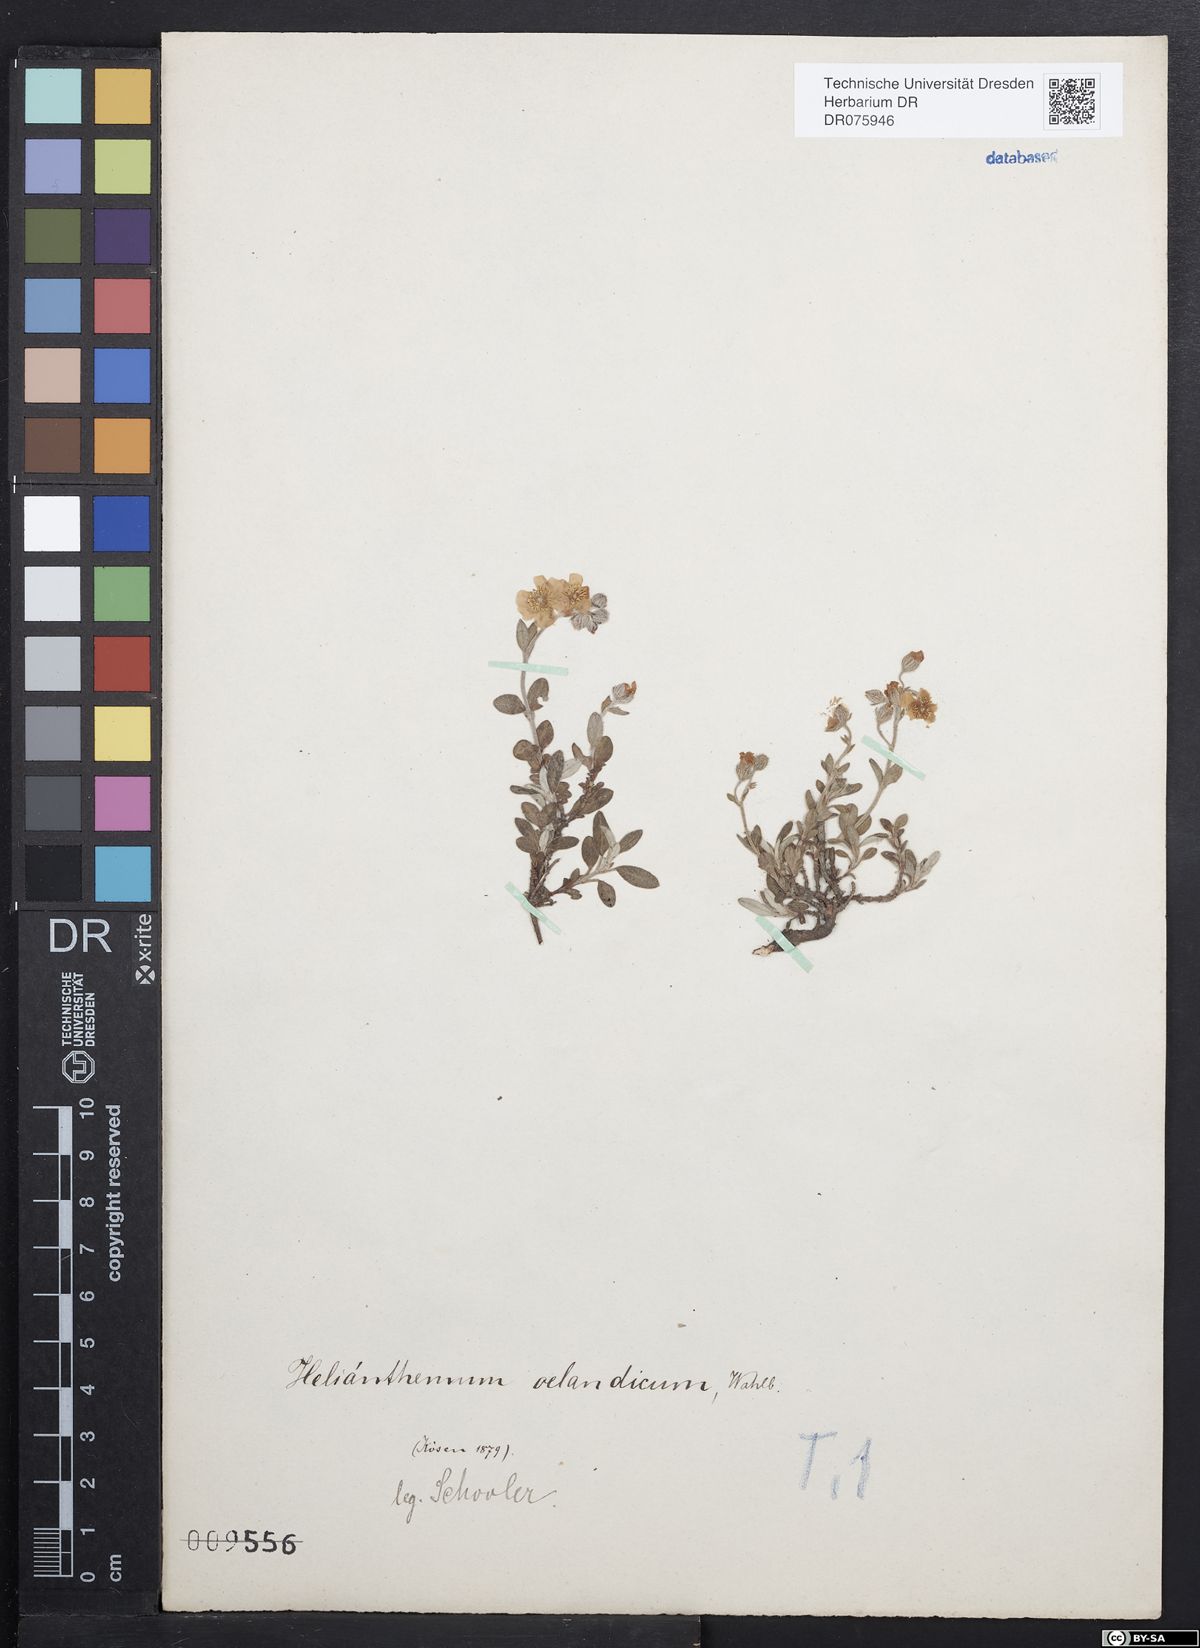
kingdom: Plantae
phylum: Tracheophyta
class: Magnoliopsida
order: Malvales
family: Cistaceae
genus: Helianthemum
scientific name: Helianthemum canum
